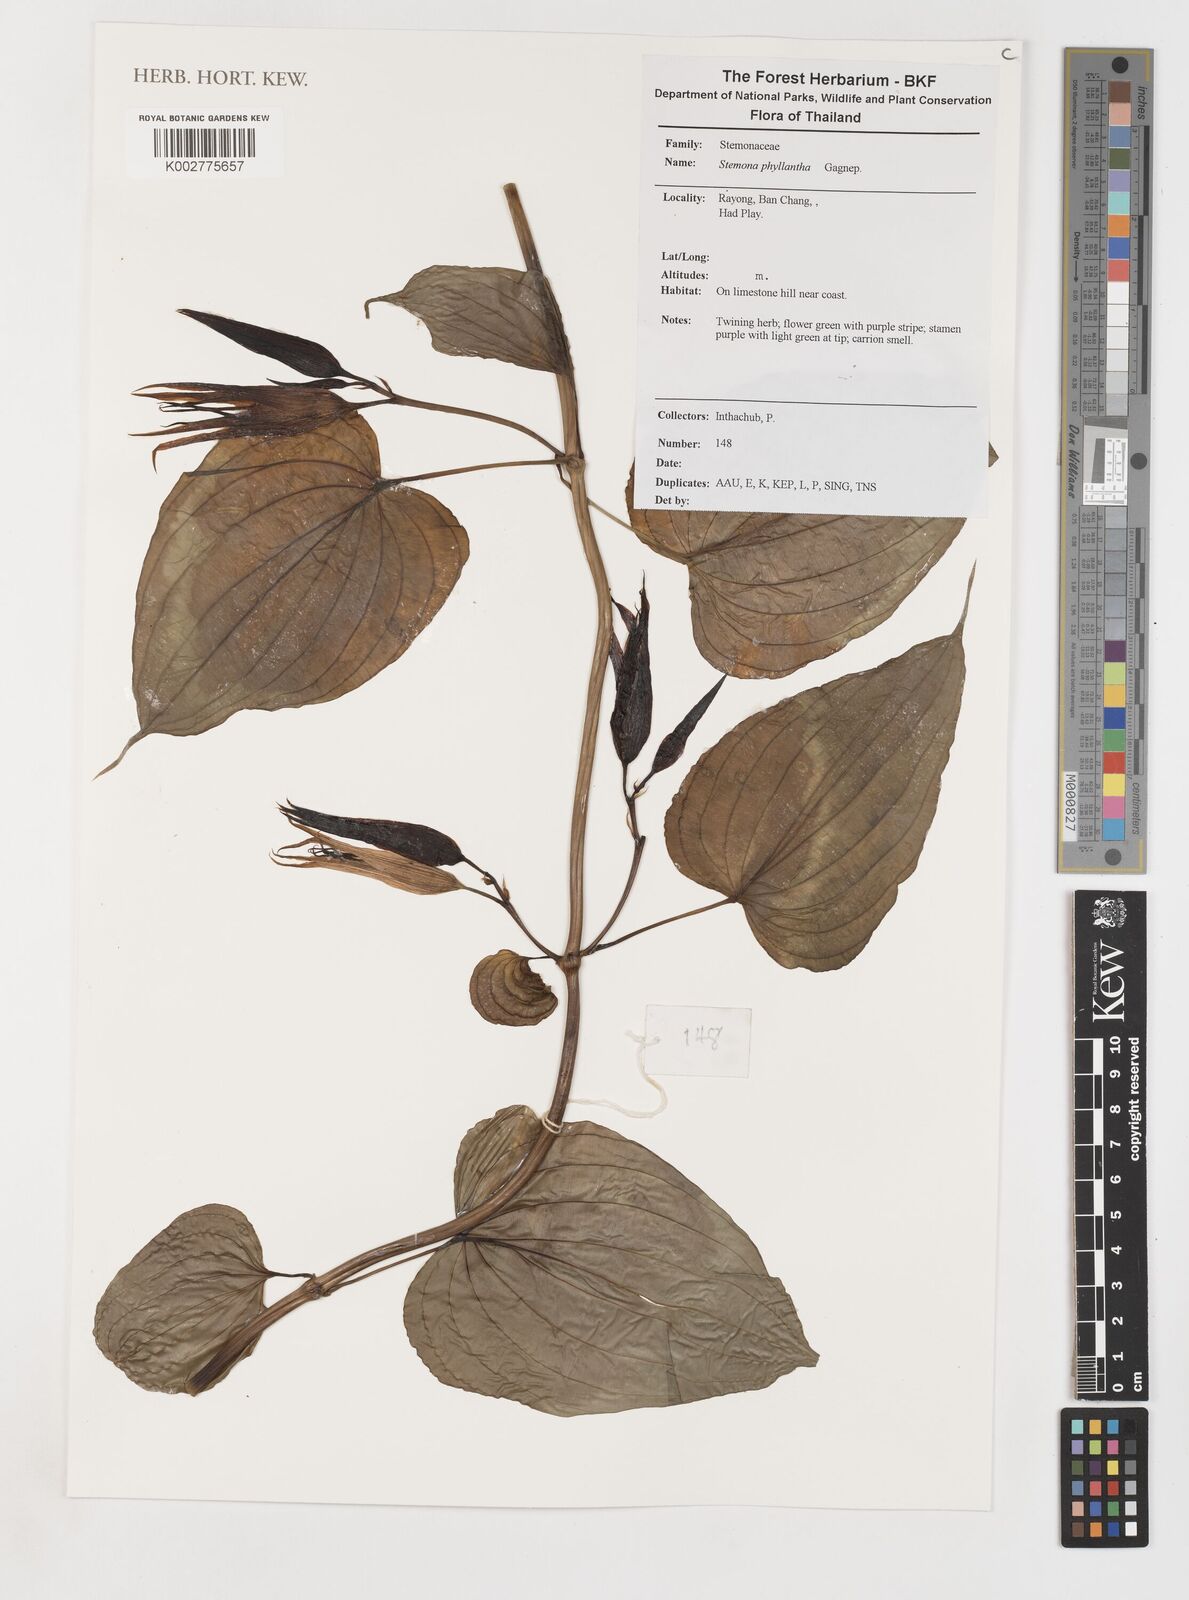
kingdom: Plantae
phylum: Tracheophyta
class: Liliopsida
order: Pandanales
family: Stemonaceae
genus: Stemona
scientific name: Stemona phyllantha
